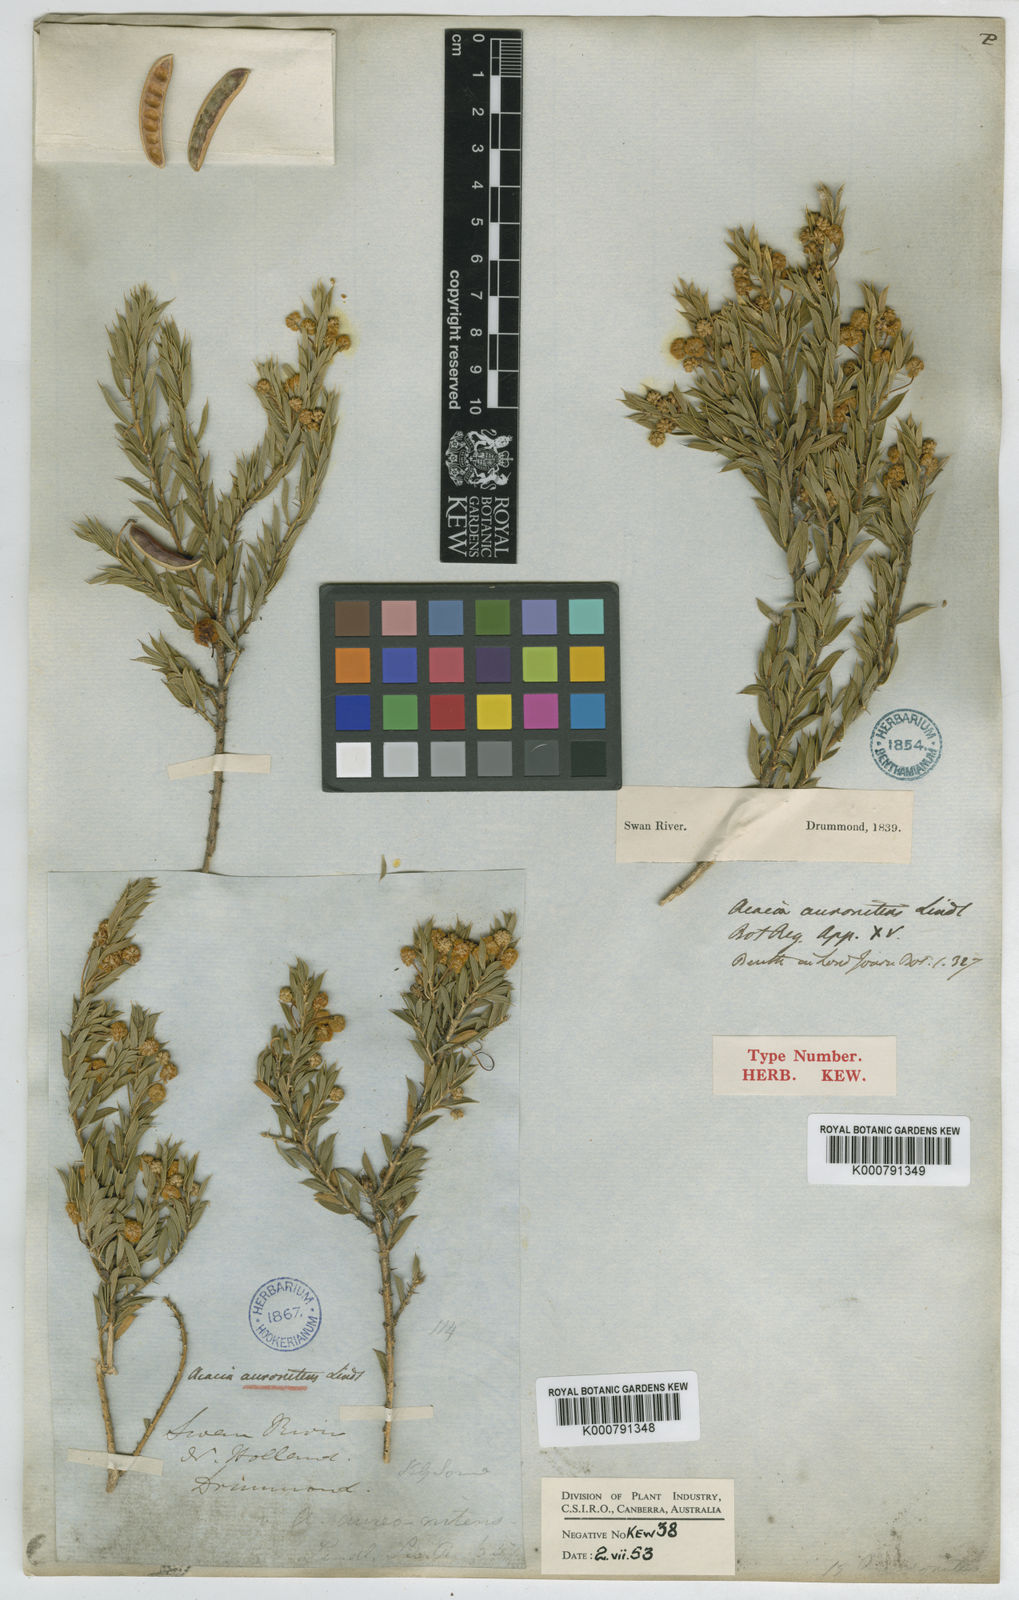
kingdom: Plantae
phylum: Tracheophyta
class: Magnoliopsida
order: Fabales
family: Fabaceae
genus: Acacia
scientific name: Acacia auronitens
